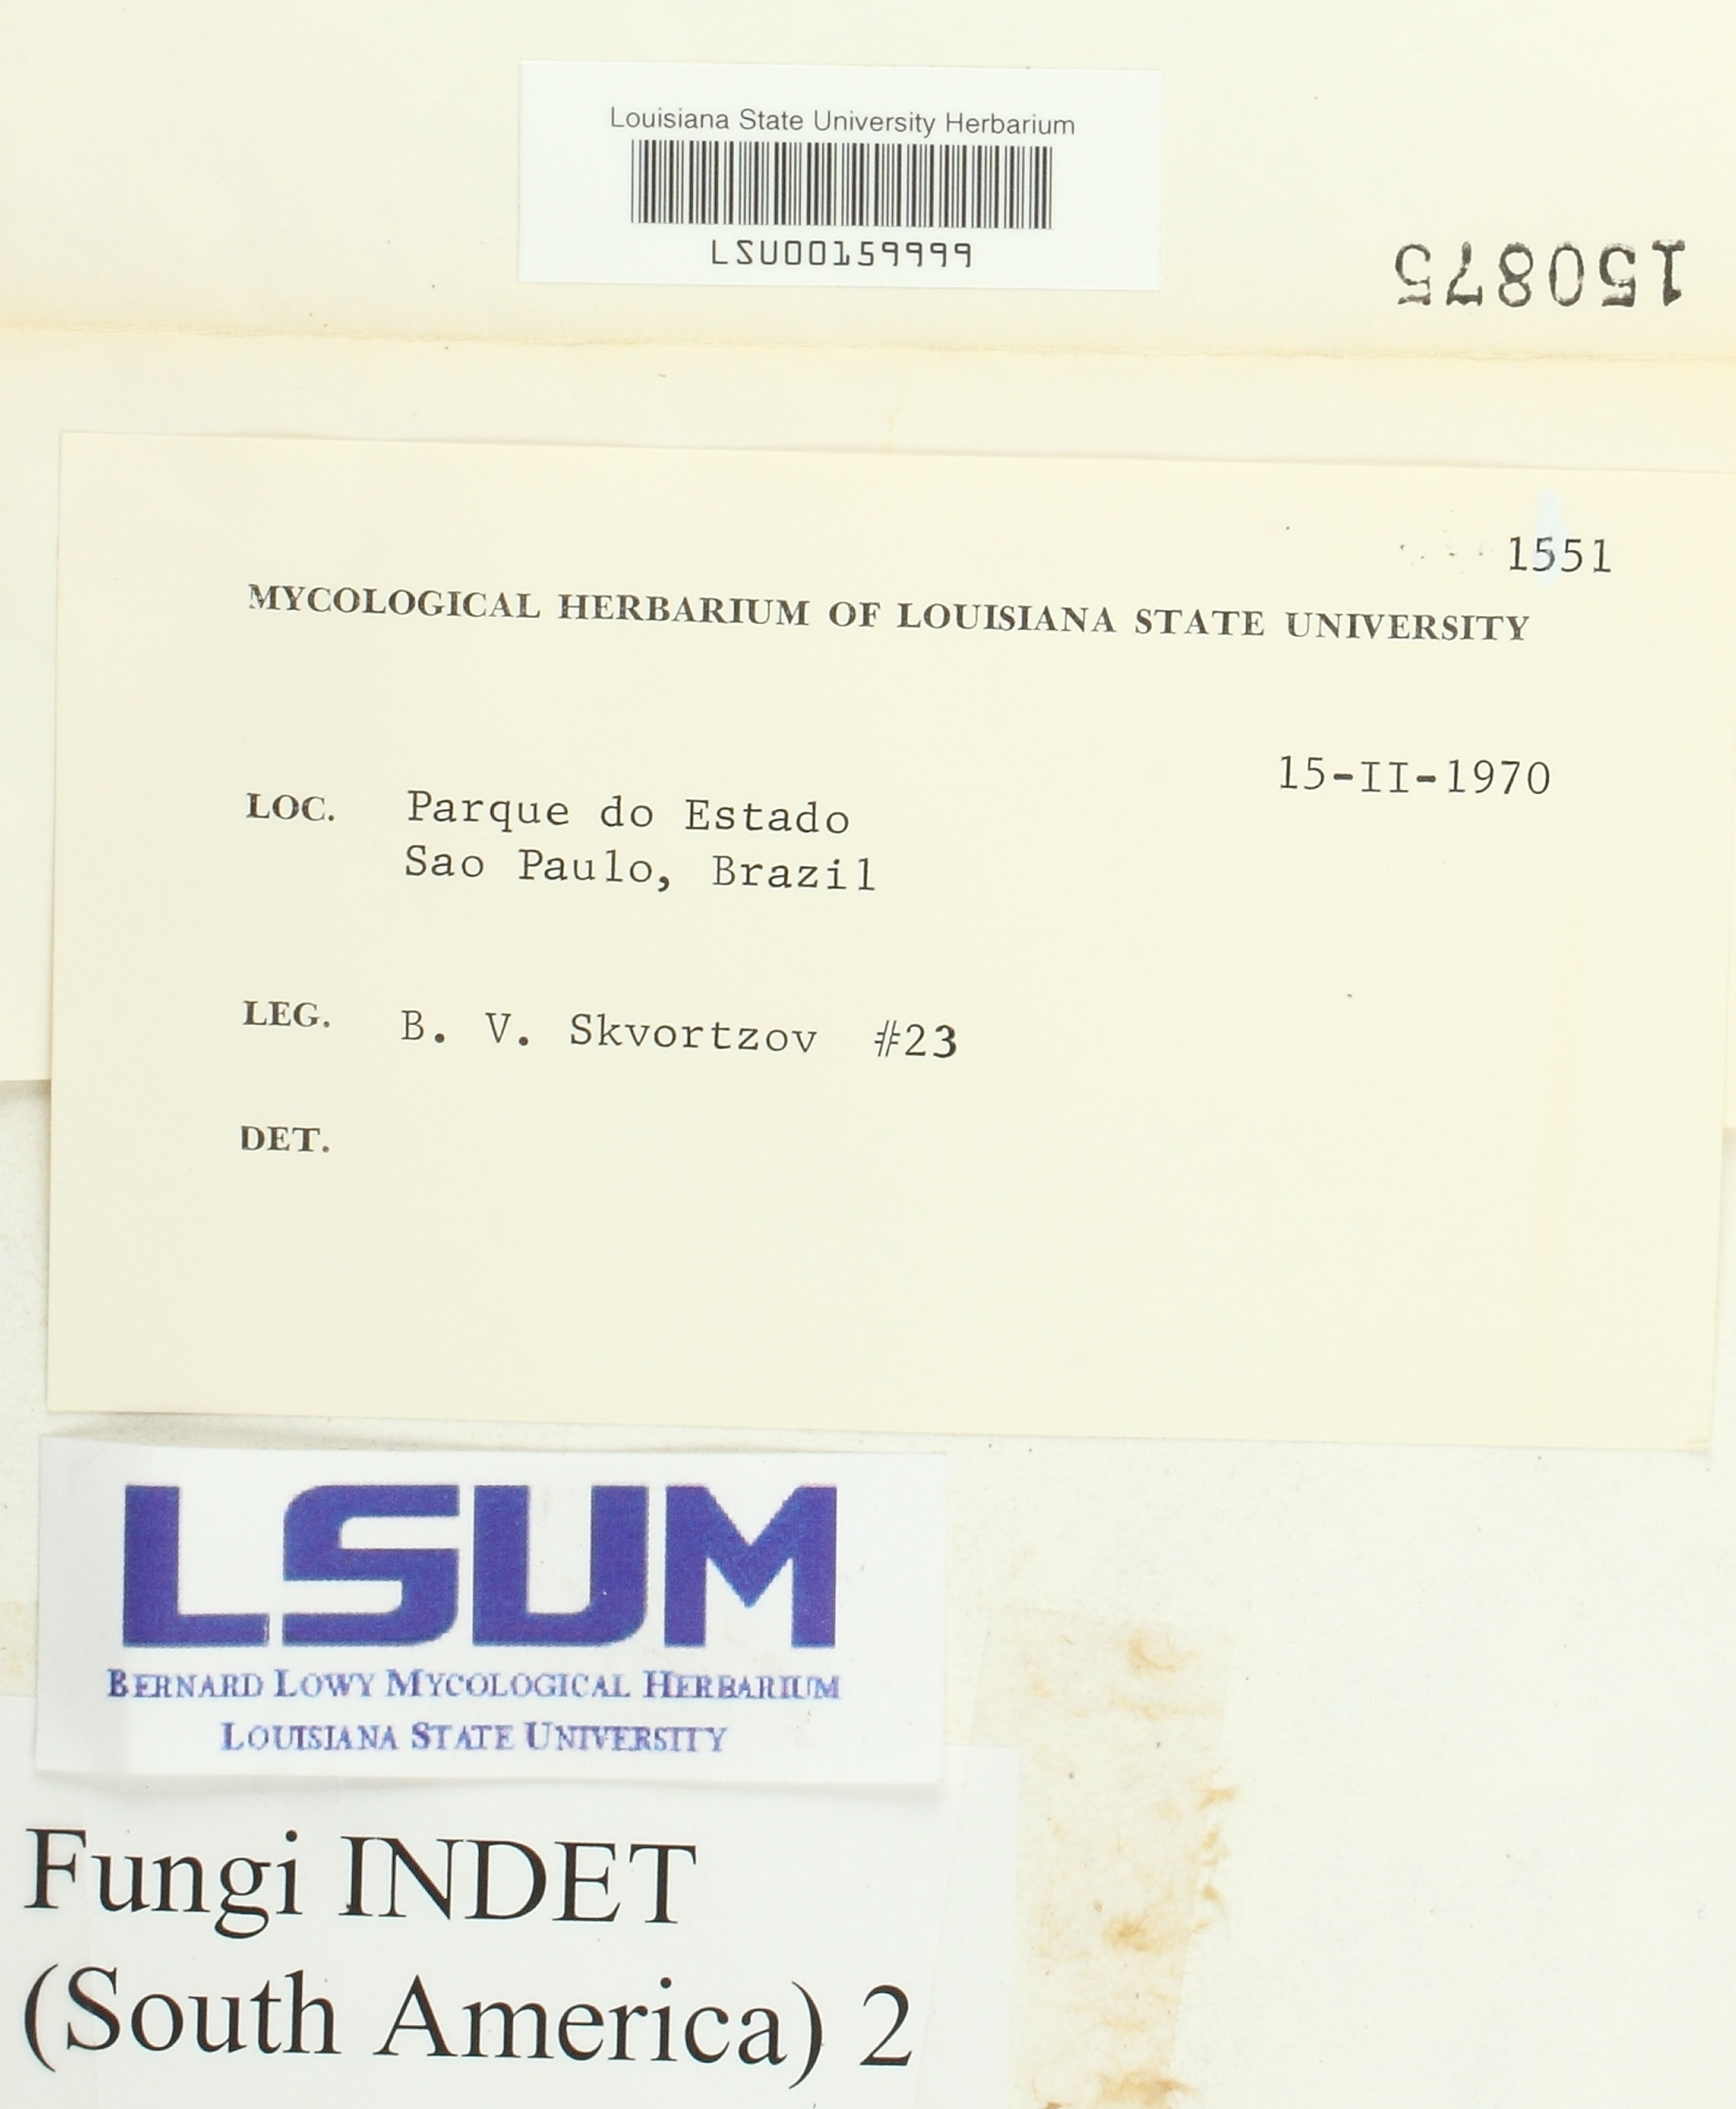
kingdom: Fungi
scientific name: Fungi
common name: Fungi
